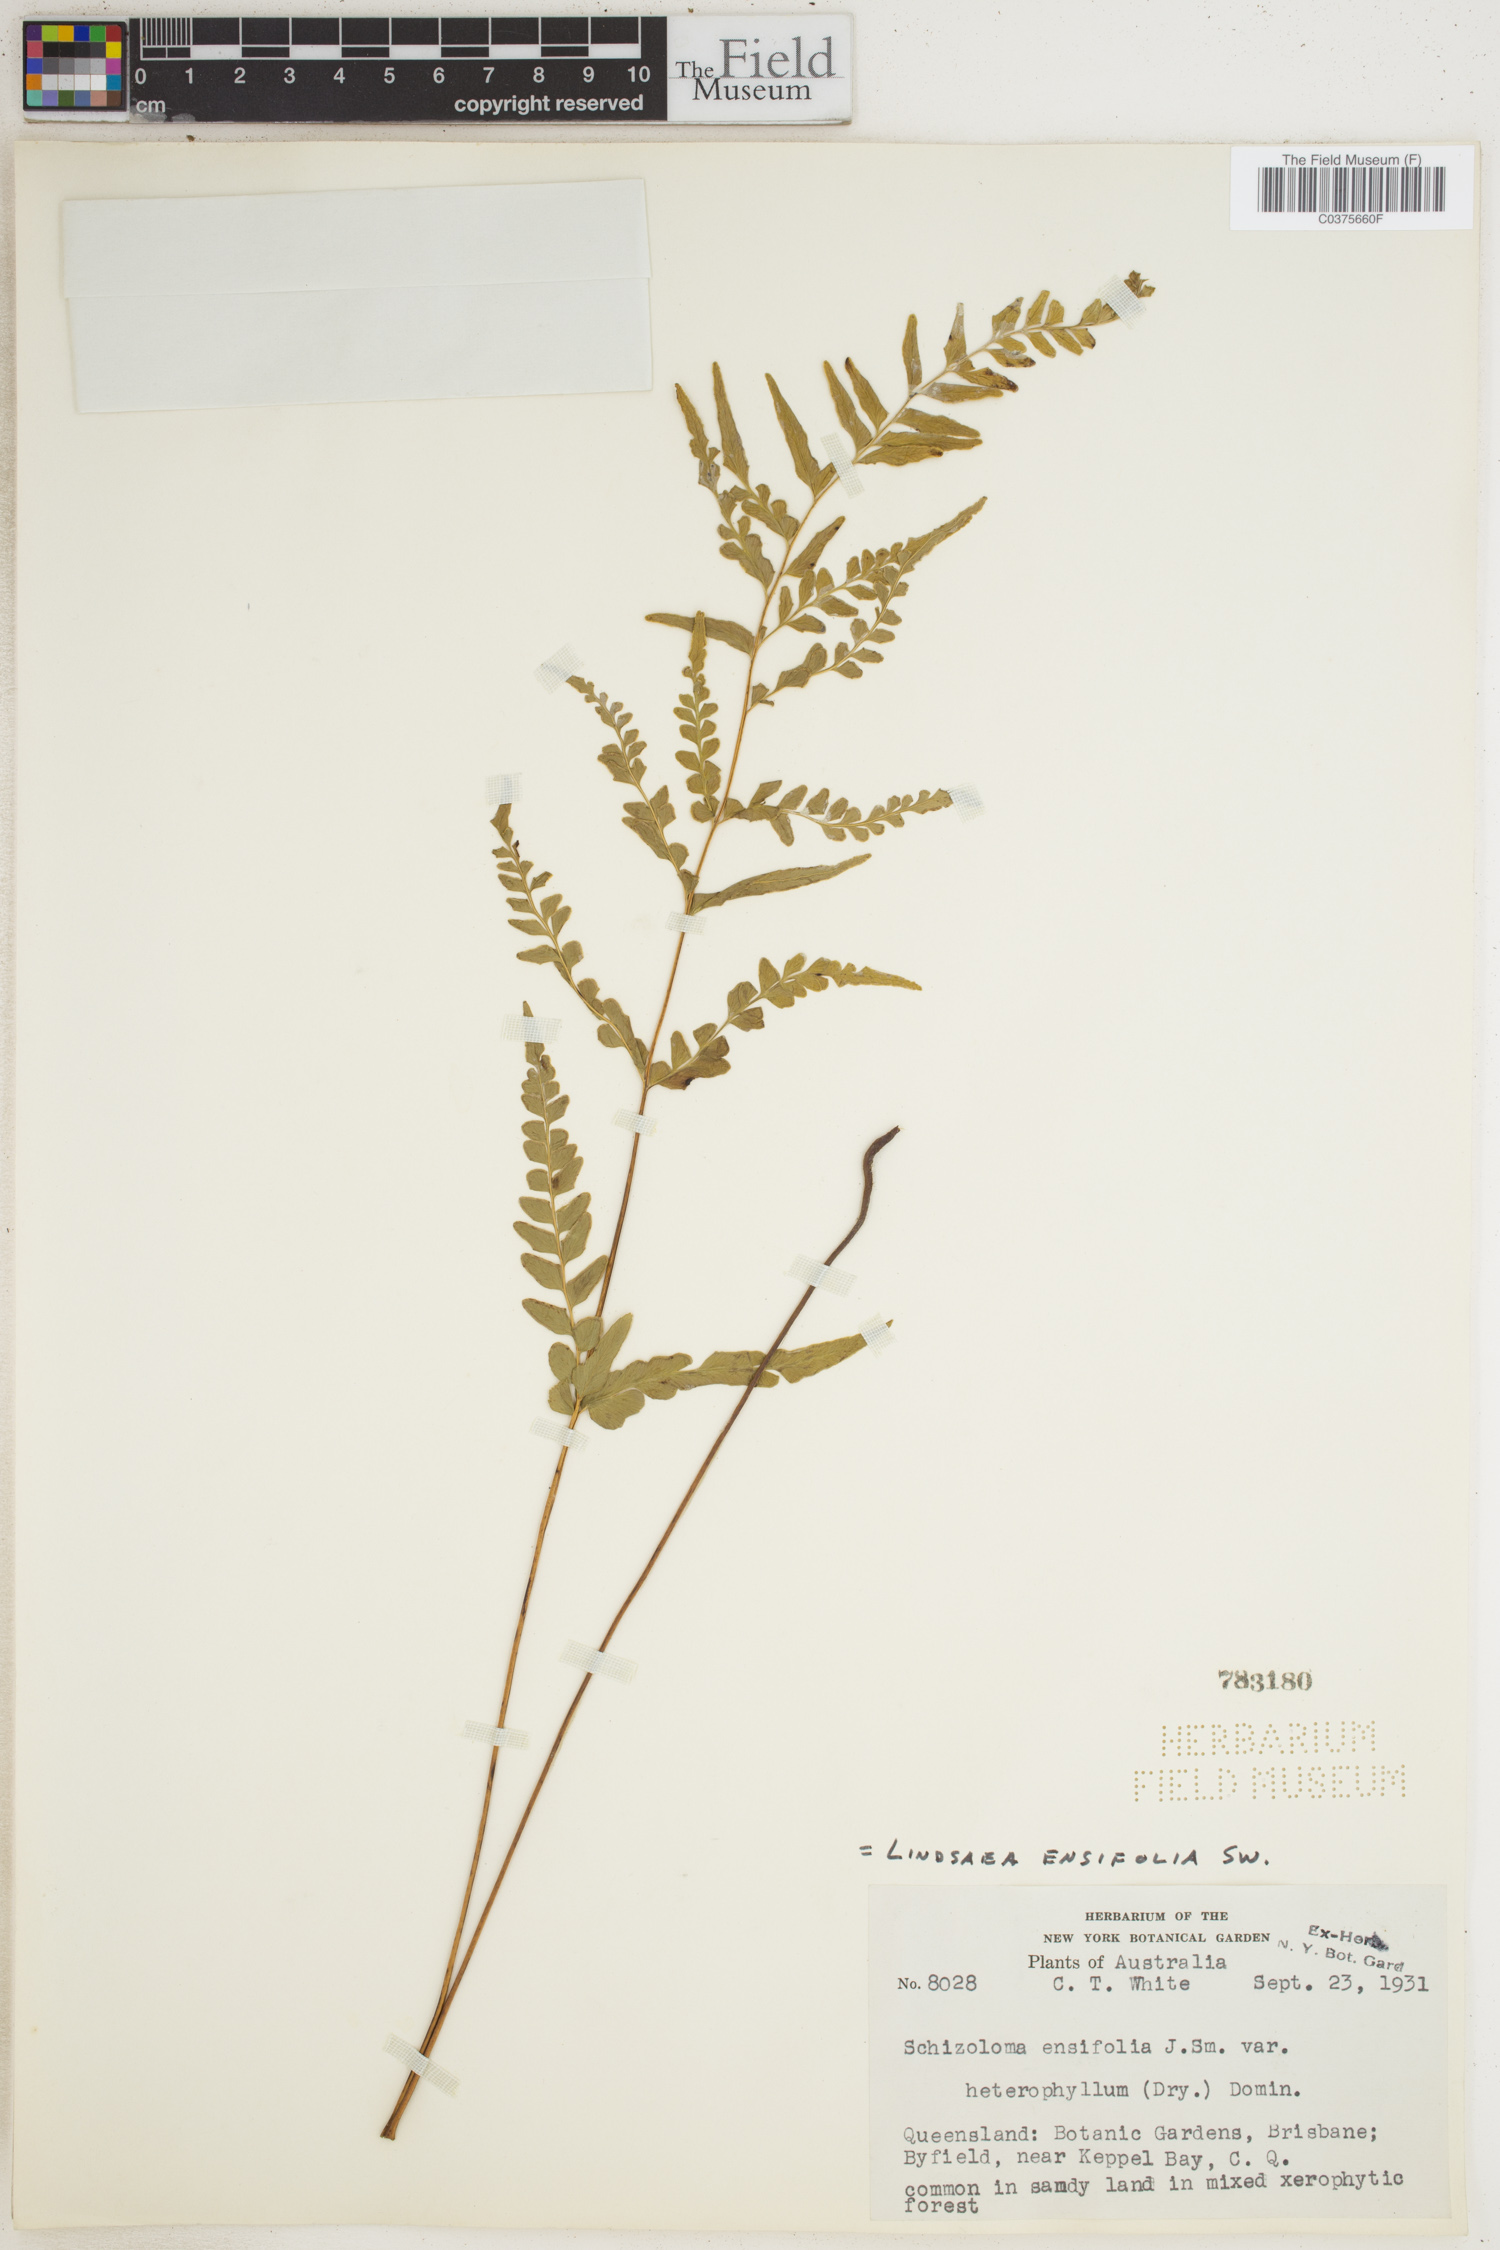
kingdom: Plantae
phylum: Tracheophyta
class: Polypodiopsida
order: Polypodiales
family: Lindsaeaceae
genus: Lindsaea
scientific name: Lindsaea ensifolia
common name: Graceful necklace fern
